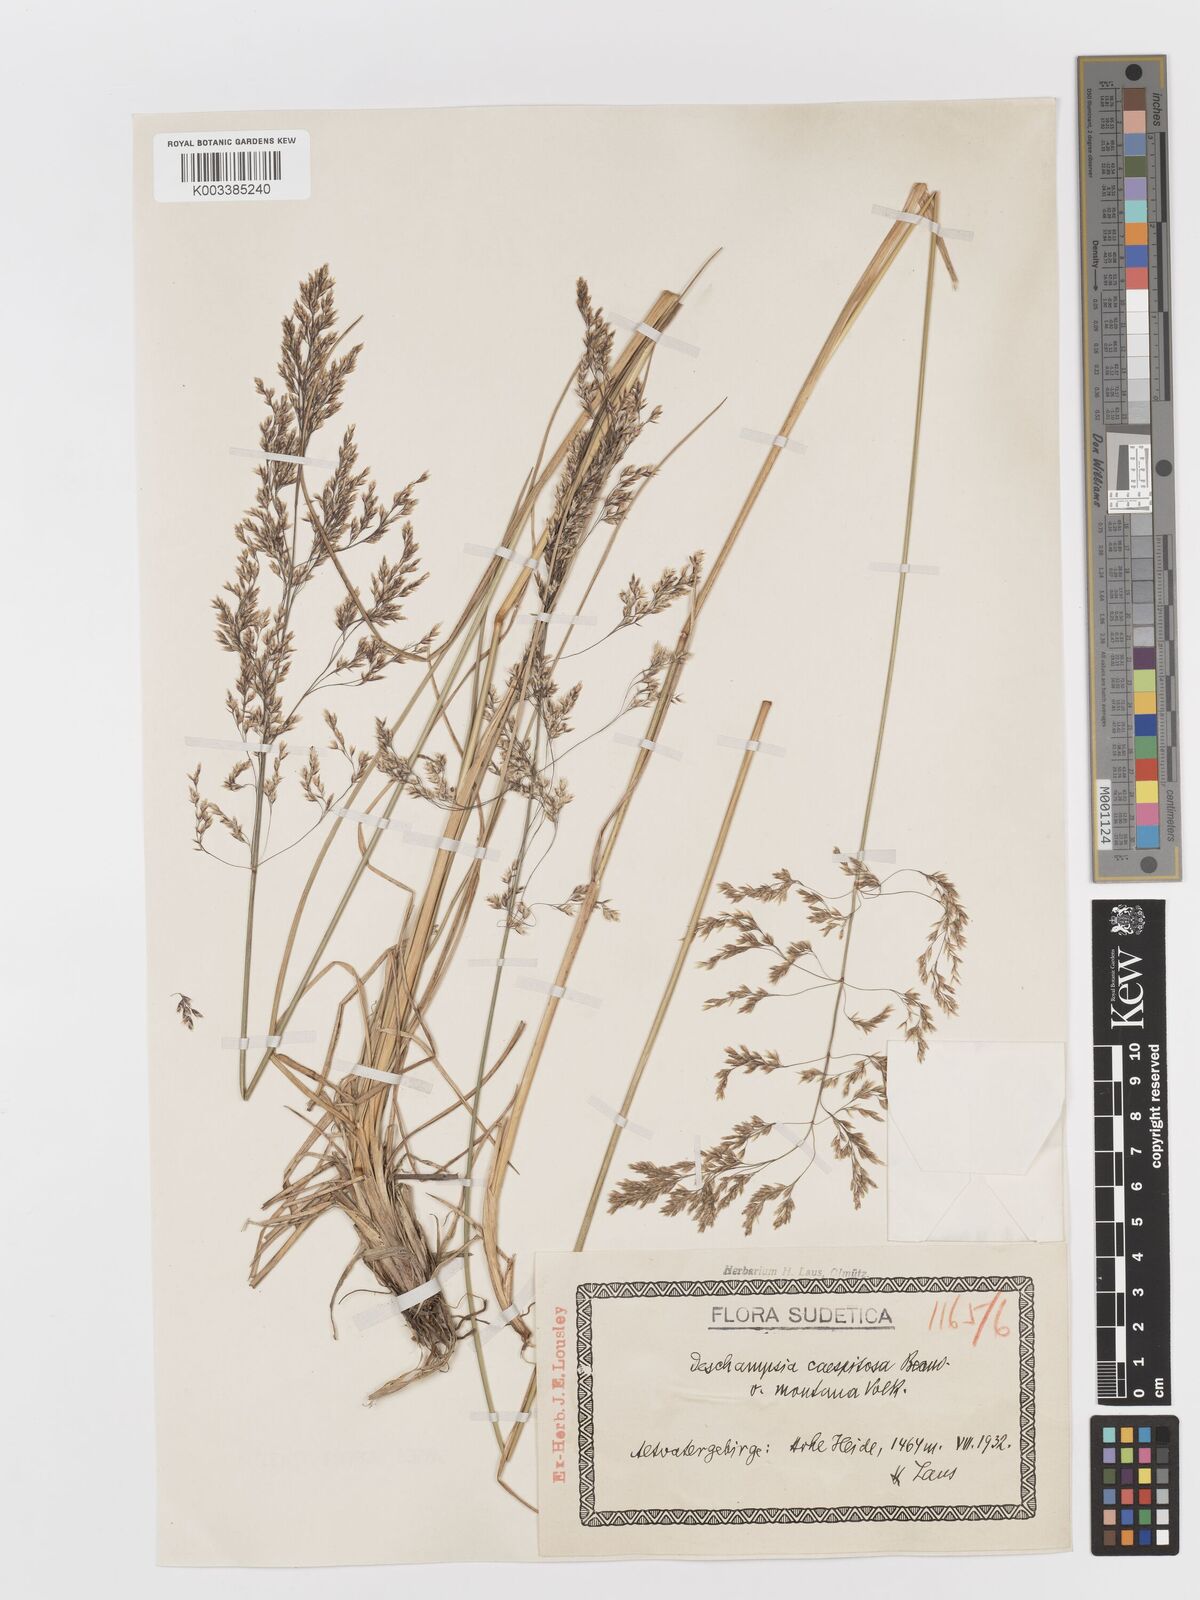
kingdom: Plantae
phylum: Tracheophyta
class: Liliopsida
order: Poales
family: Poaceae
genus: Deschampsia
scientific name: Deschampsia cespitosa
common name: Tufted hair-grass
